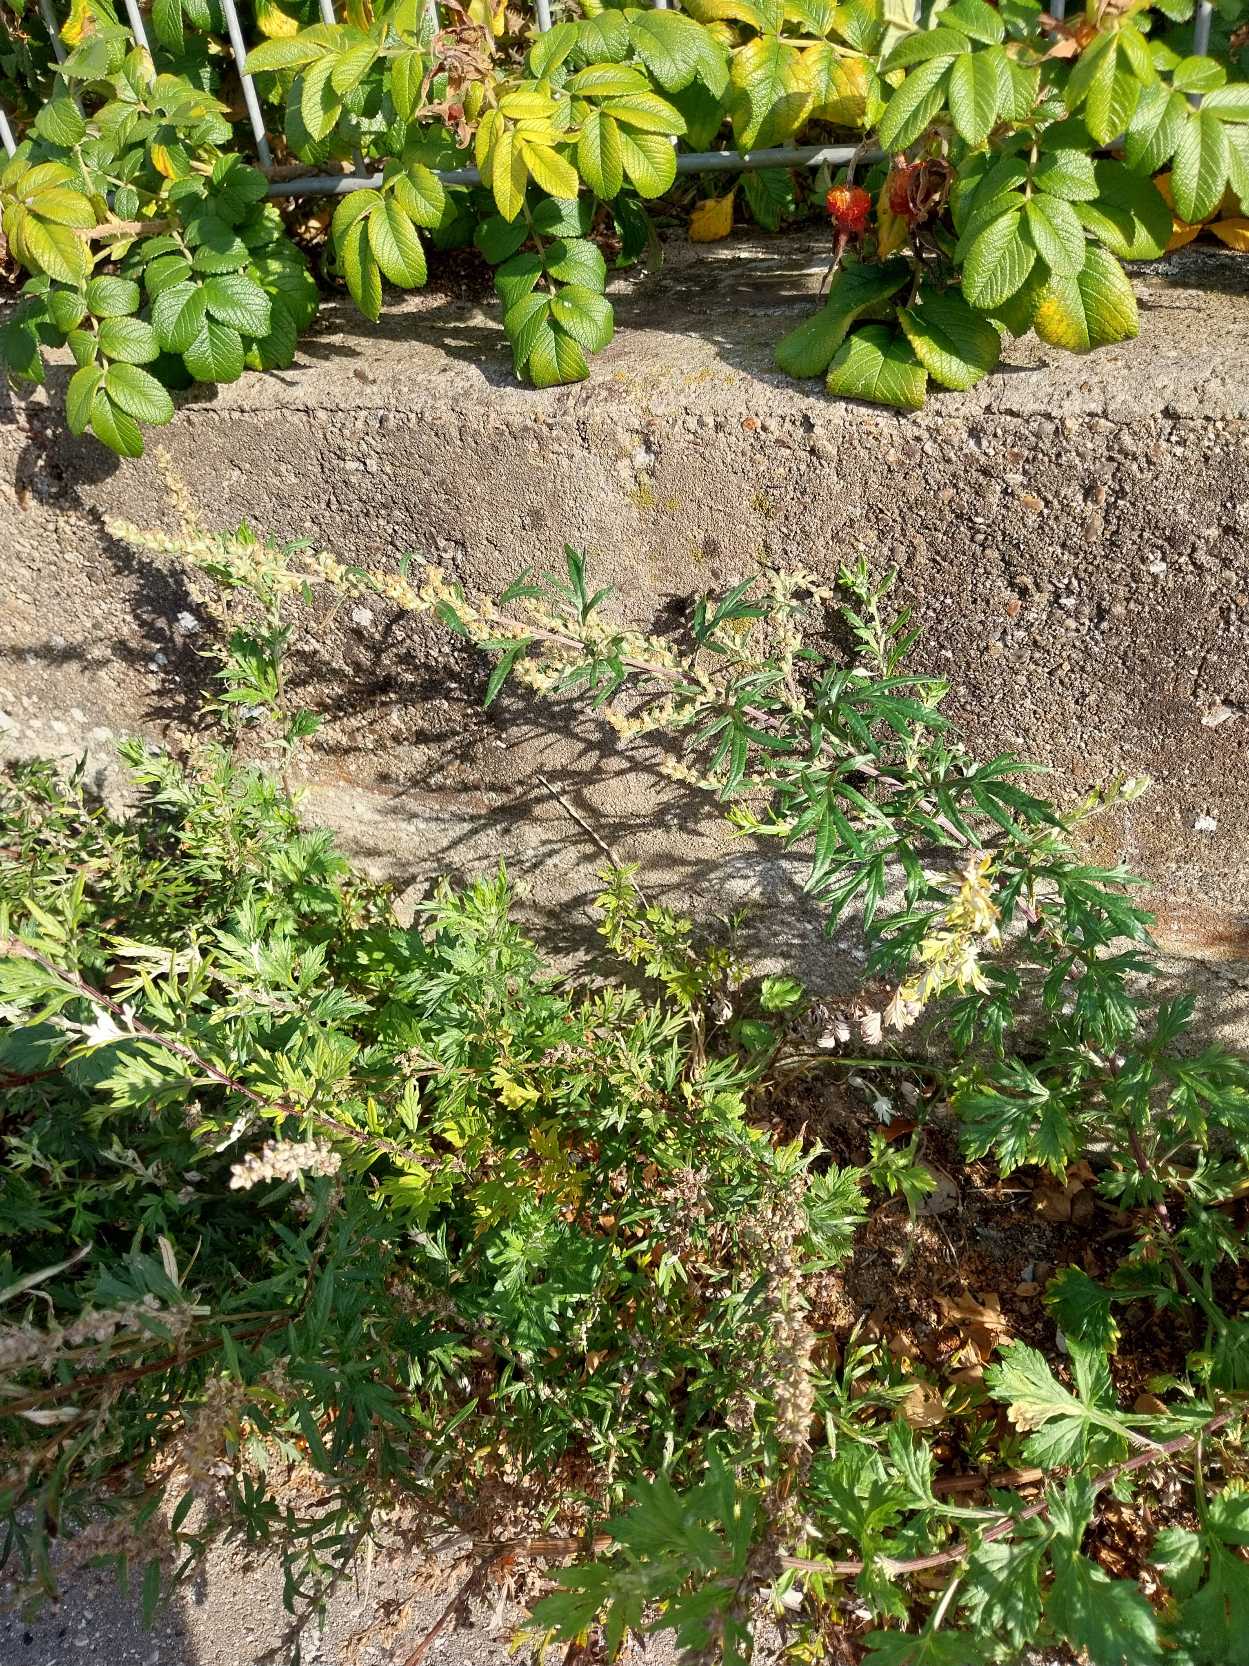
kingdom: Plantae
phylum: Tracheophyta
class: Magnoliopsida
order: Asterales
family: Asteraceae
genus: Artemisia
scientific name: Artemisia vulgaris
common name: Grå-bynke
